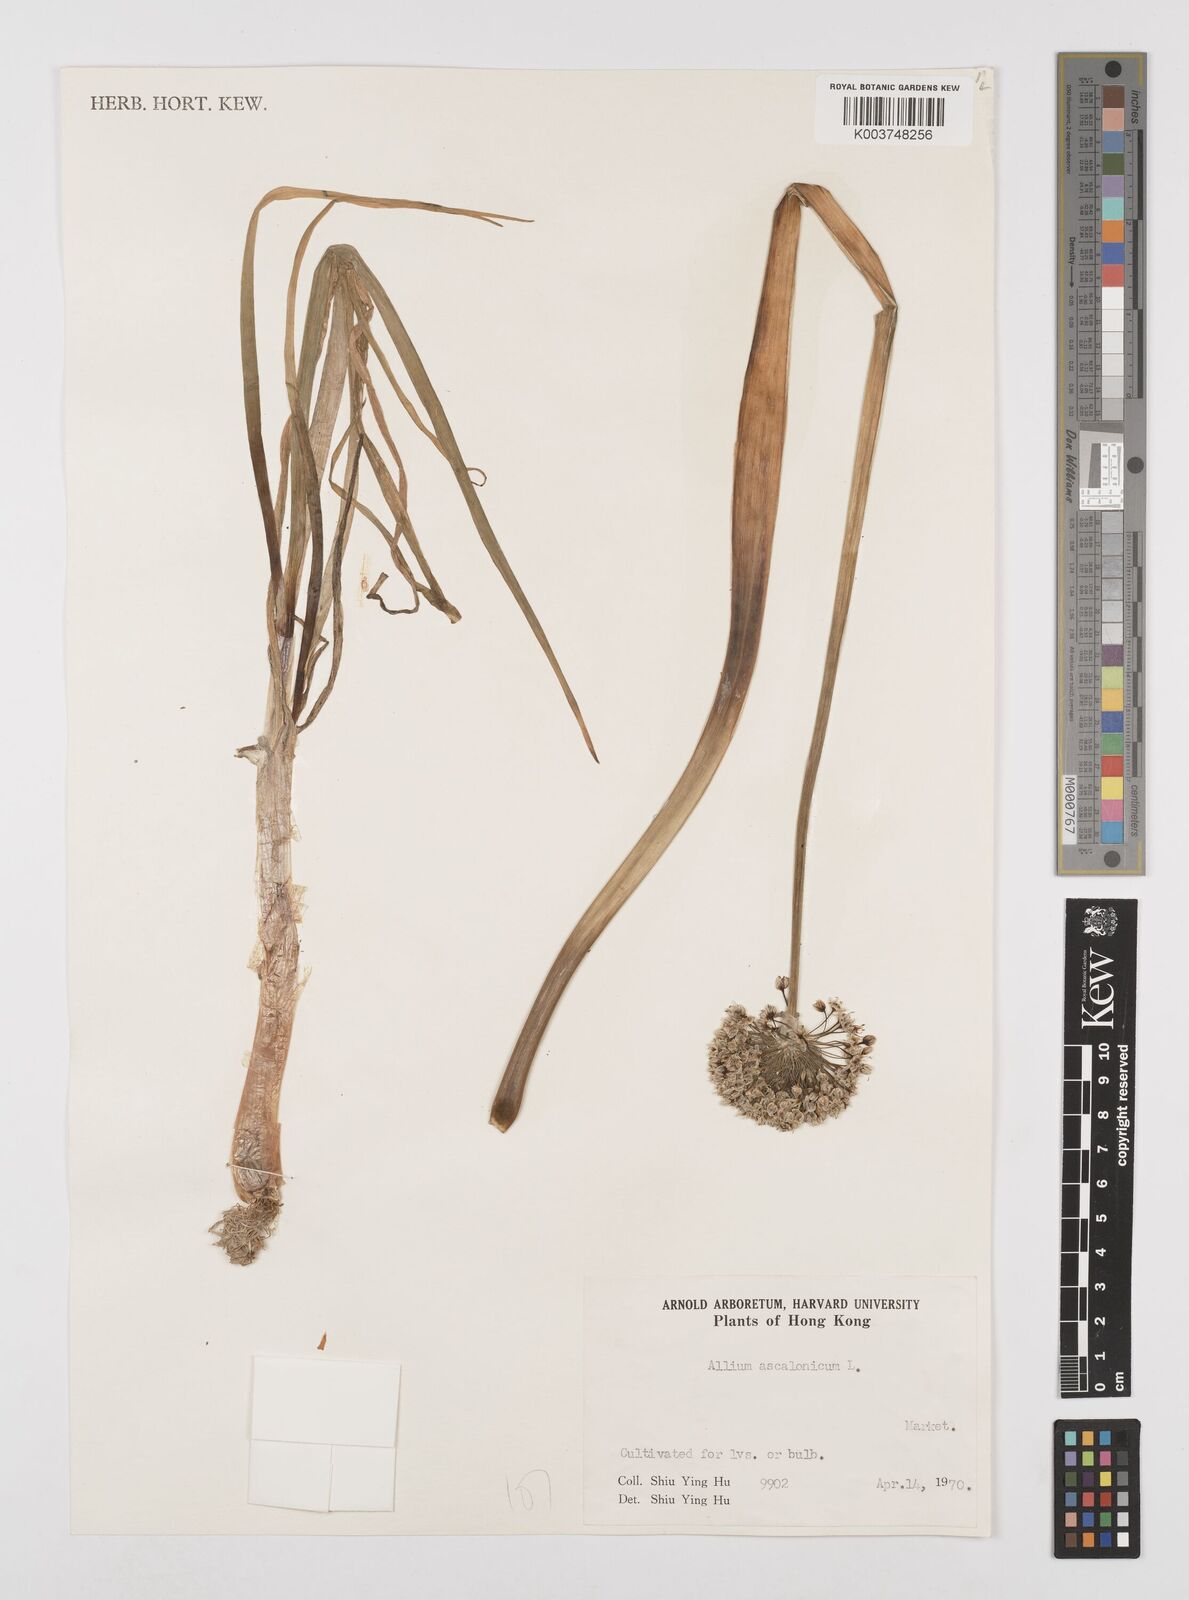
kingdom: Plantae
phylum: Tracheophyta
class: Liliopsida
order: Asparagales
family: Amaryllidaceae
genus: Allium
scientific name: Allium ascalonicum
